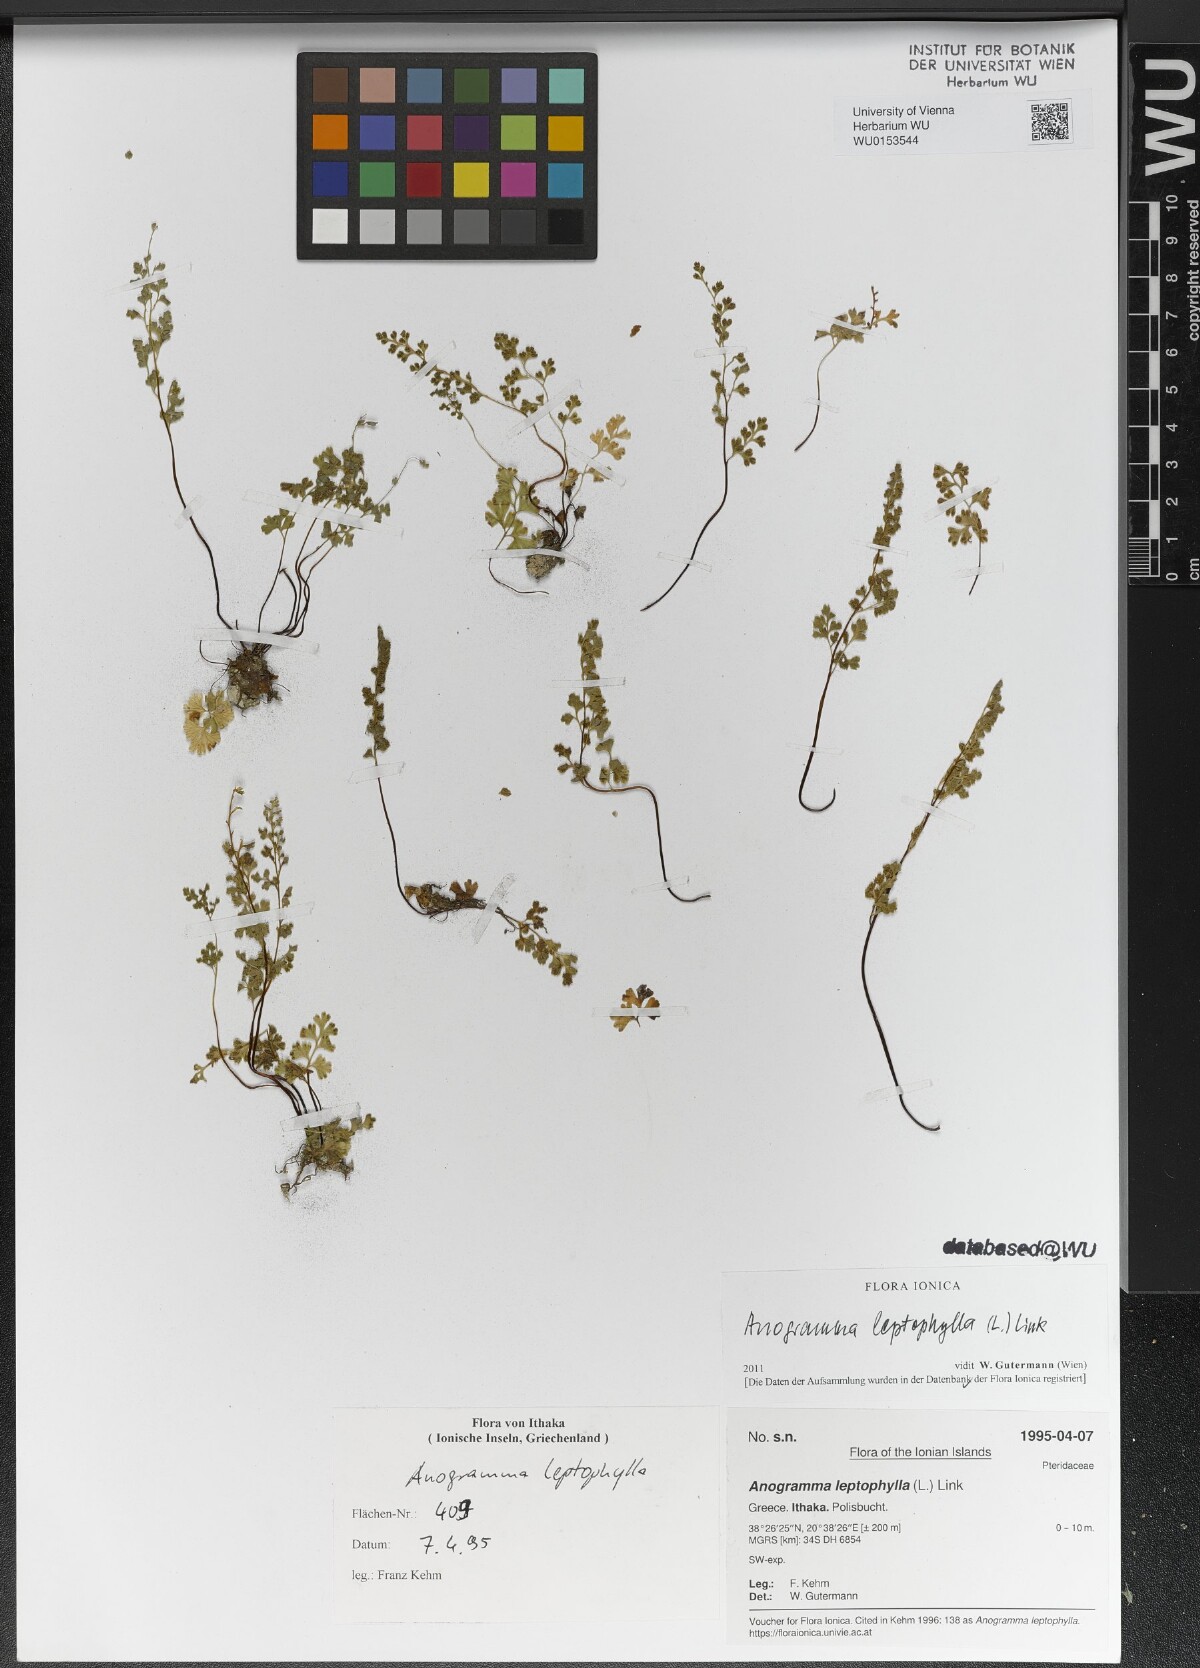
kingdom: Plantae
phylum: Tracheophyta
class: Polypodiopsida
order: Polypodiales
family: Pteridaceae
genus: Anogramma
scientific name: Anogramma leptophylla
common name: Jersey fern
